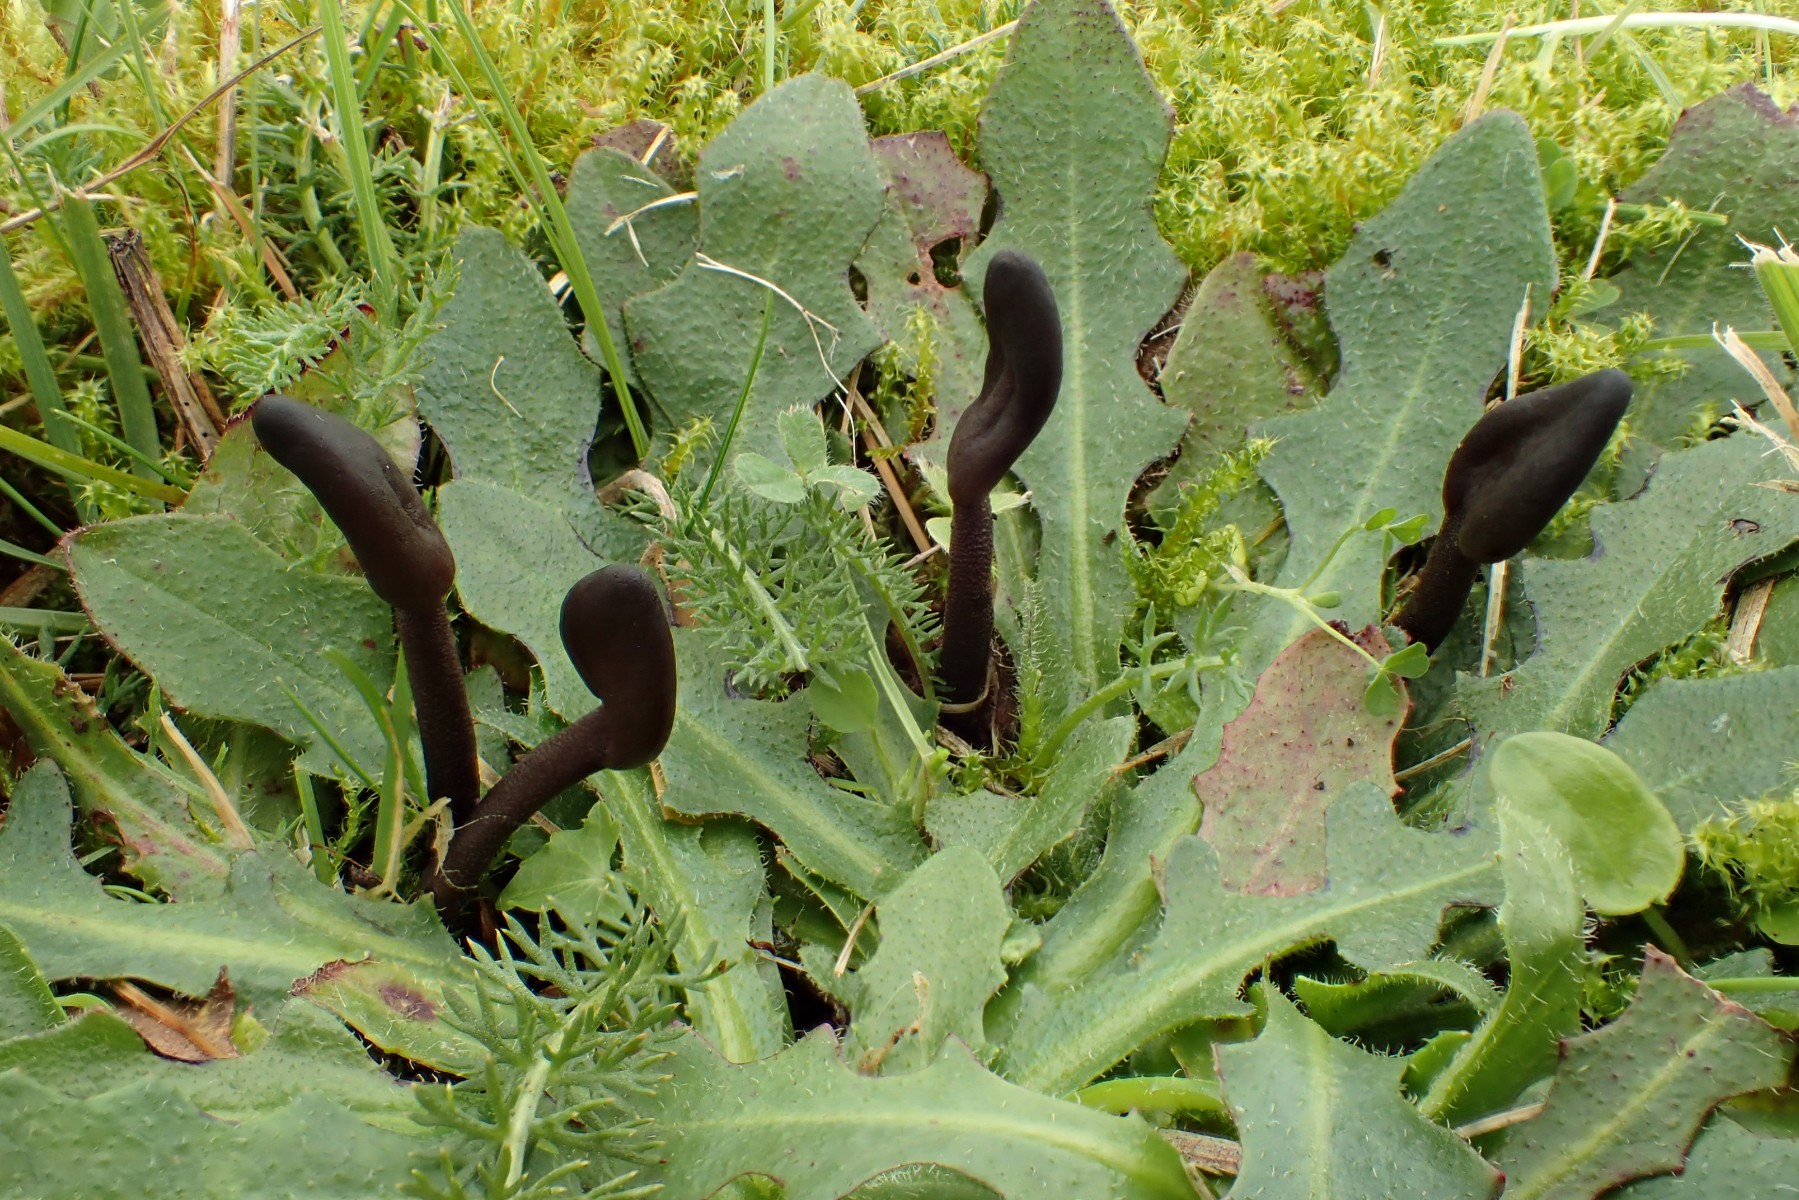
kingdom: Fungi
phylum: Ascomycota
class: Geoglossomycetes
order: Geoglossales
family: Geoglossaceae
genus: Geoglossum
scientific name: Geoglossum
